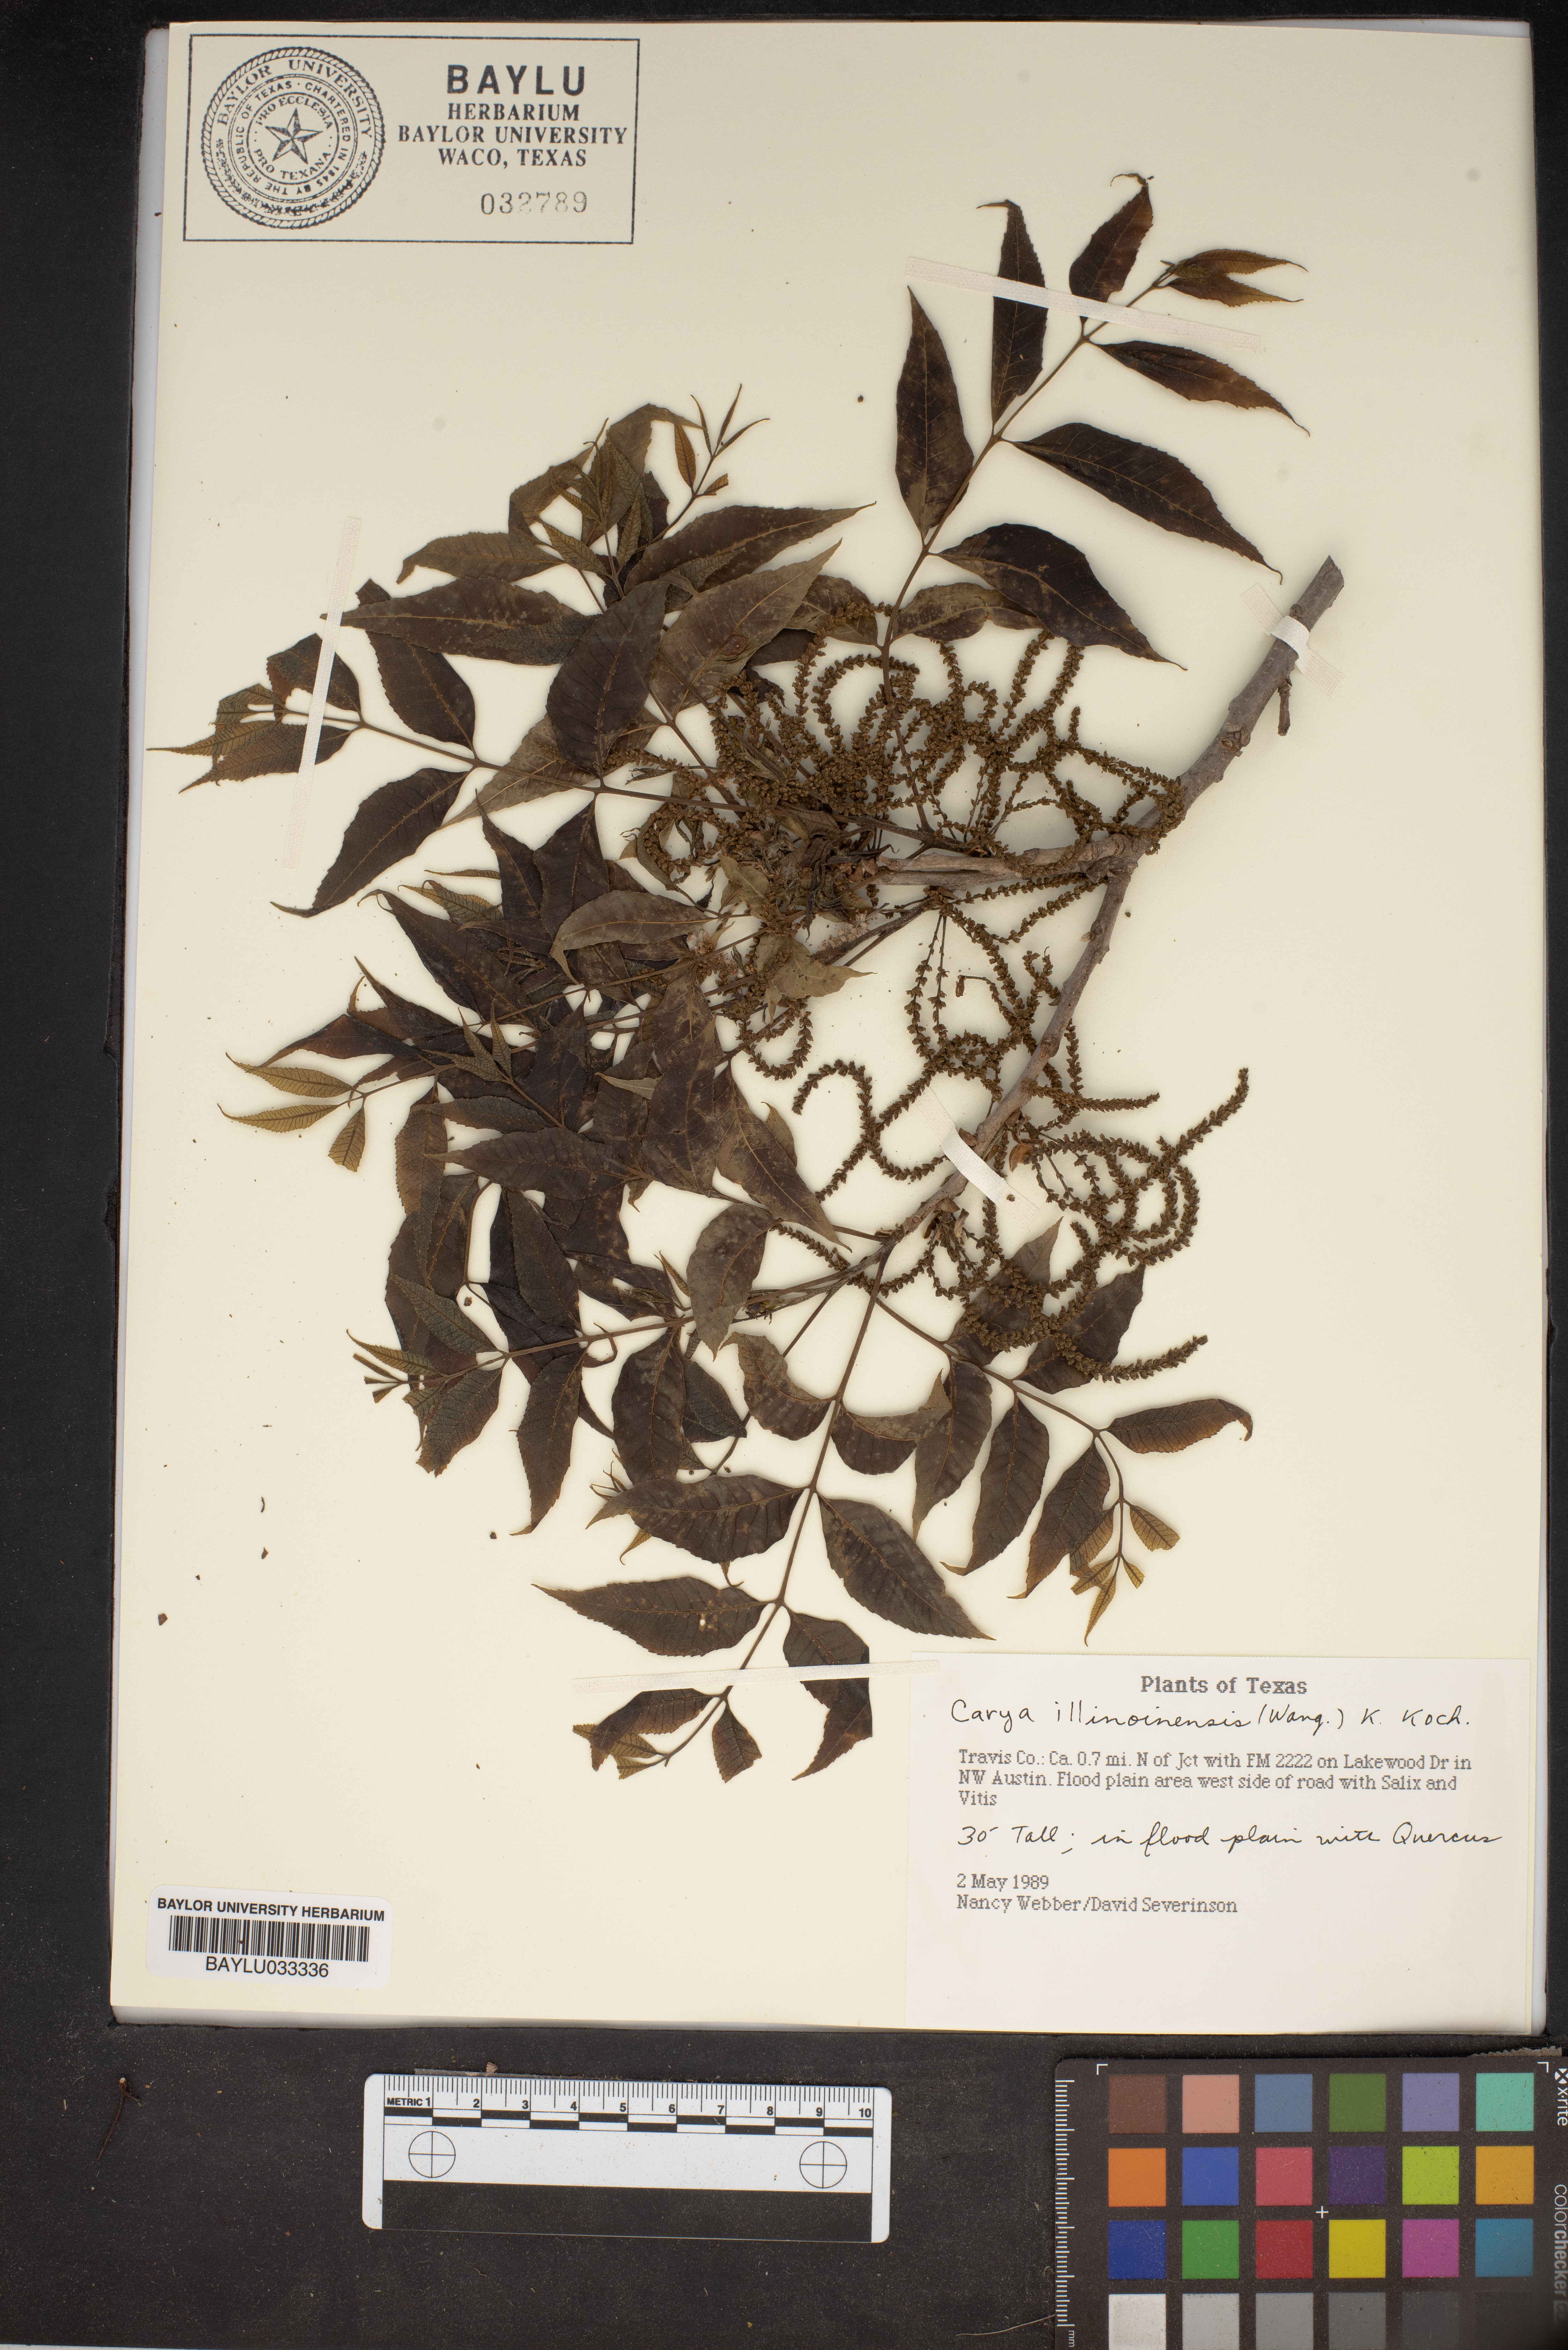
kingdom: Plantae
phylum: Tracheophyta
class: Magnoliopsida
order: Fagales
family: Juglandaceae
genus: Carya
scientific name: Carya illinoinensis
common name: Pecan
